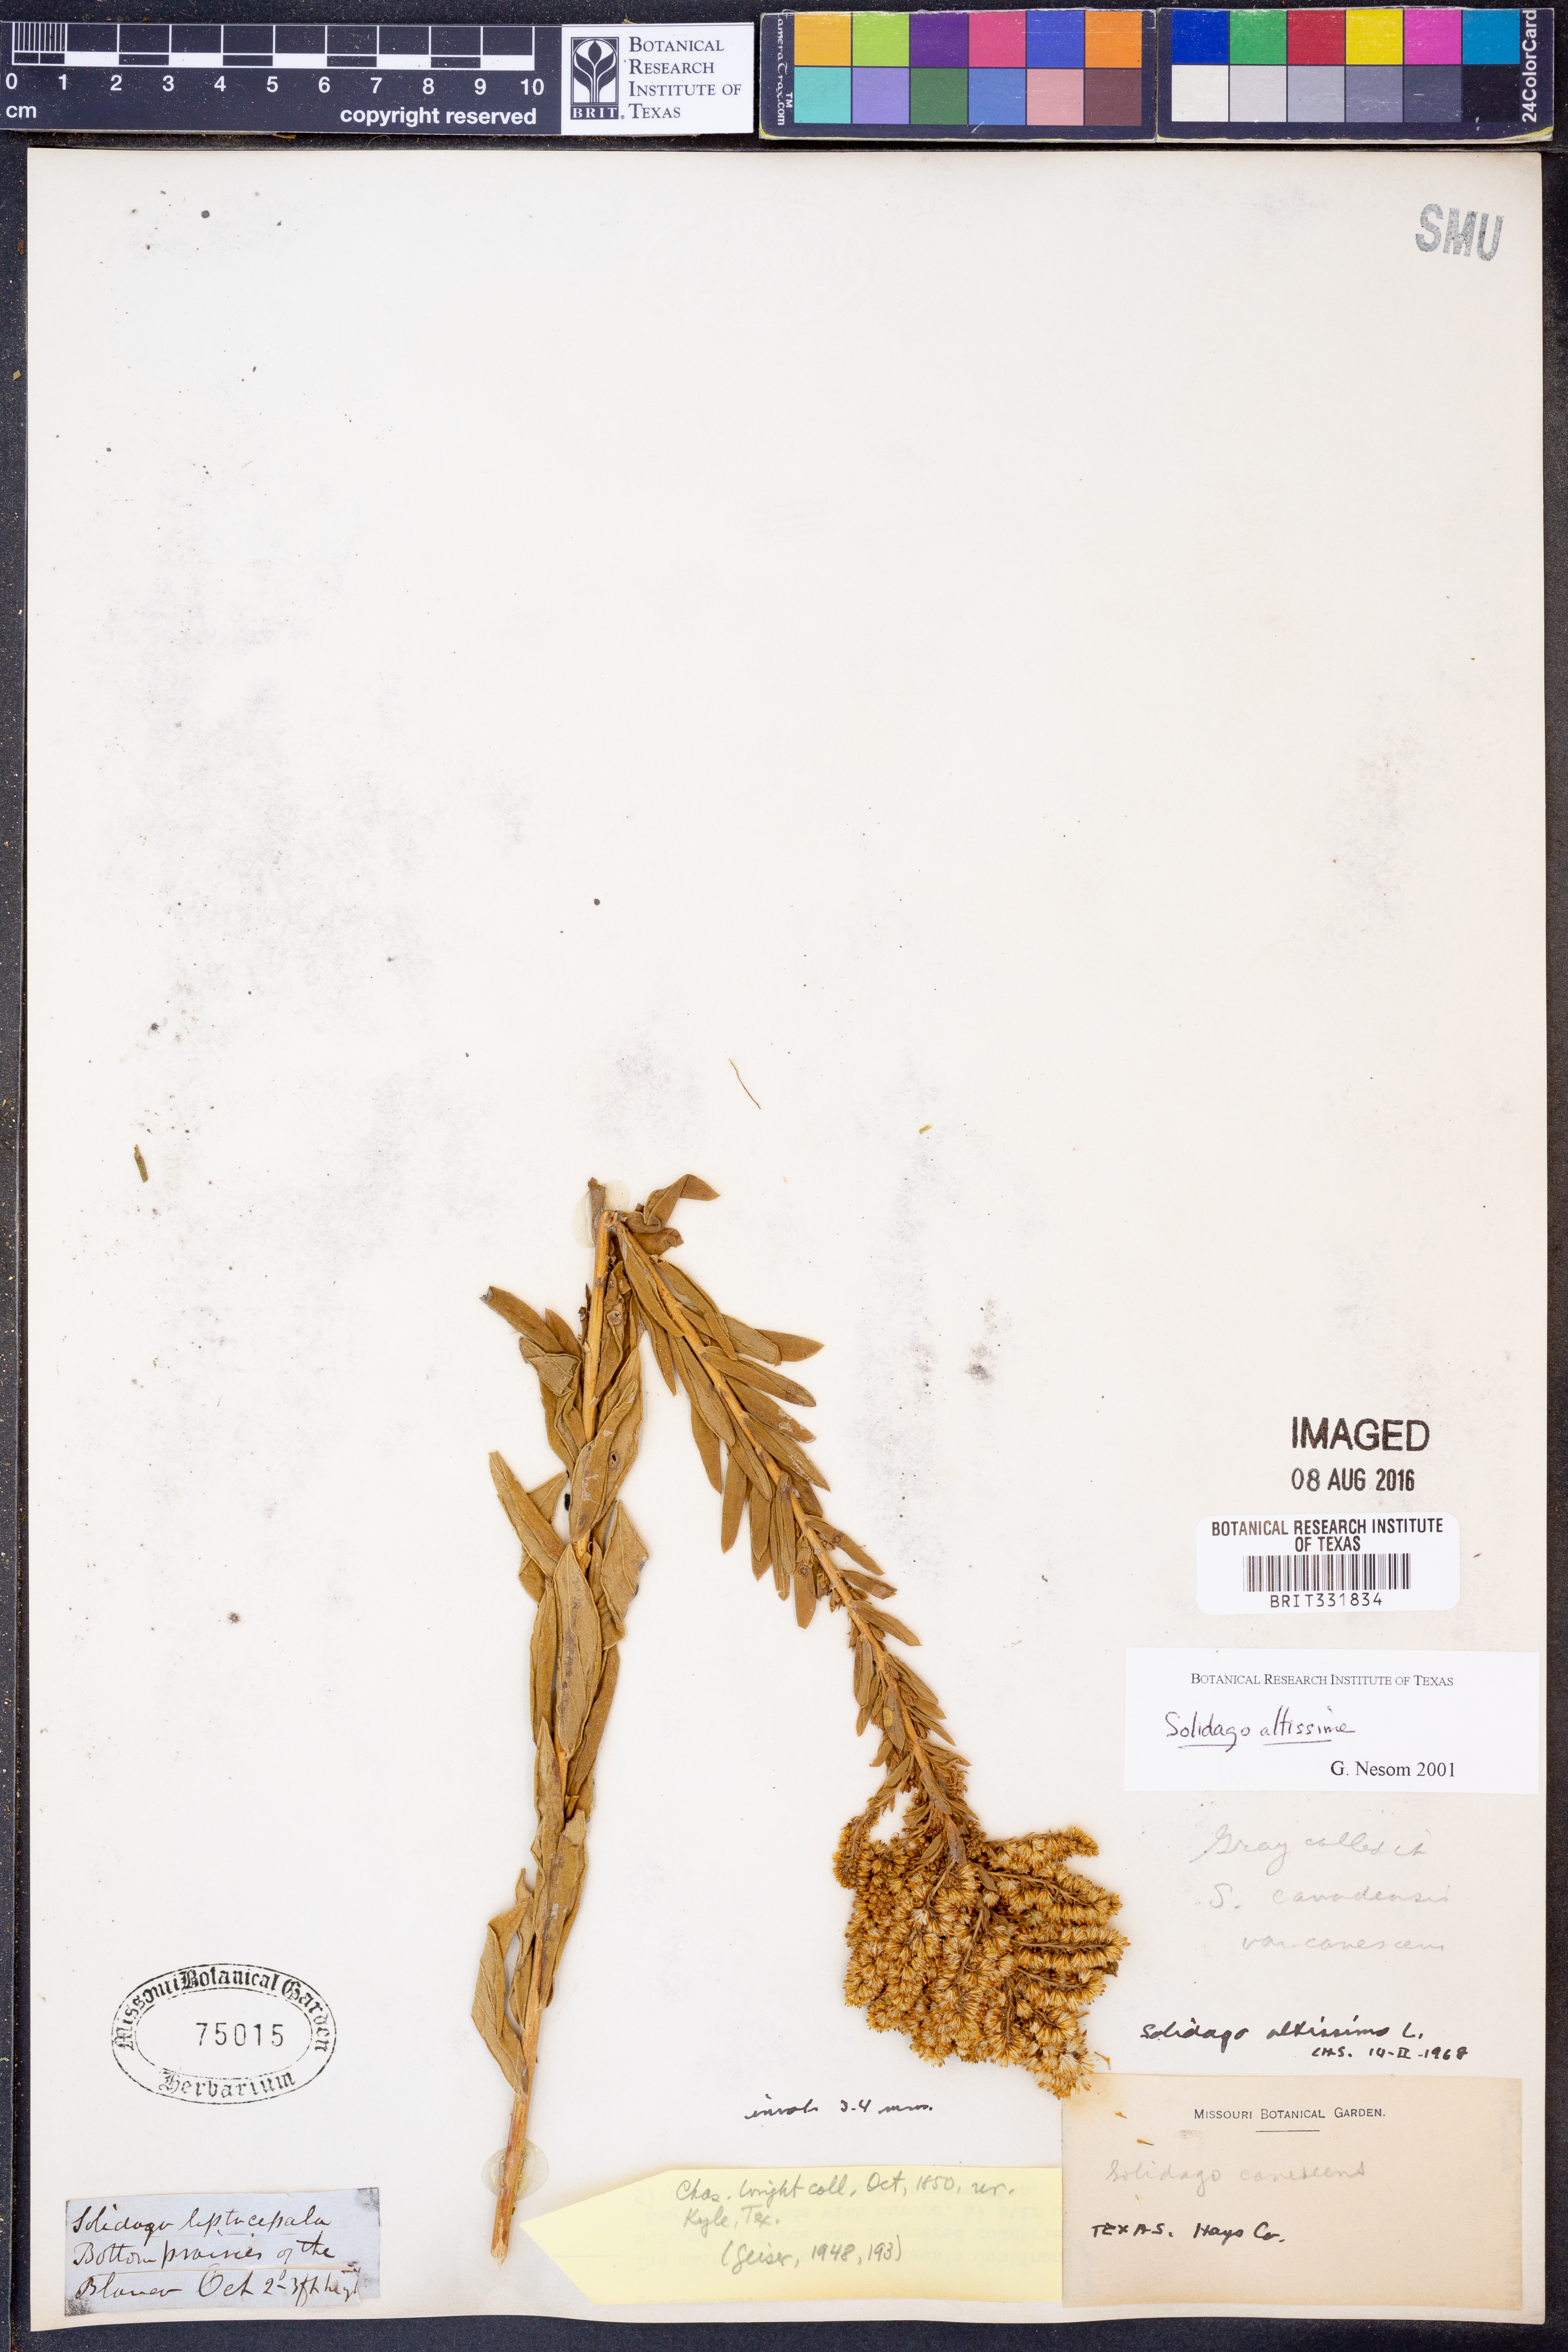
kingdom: Plantae
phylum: Tracheophyta
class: Magnoliopsida
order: Asterales
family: Asteraceae
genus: Solidago
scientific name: Solidago altissima
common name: Late goldenrod
